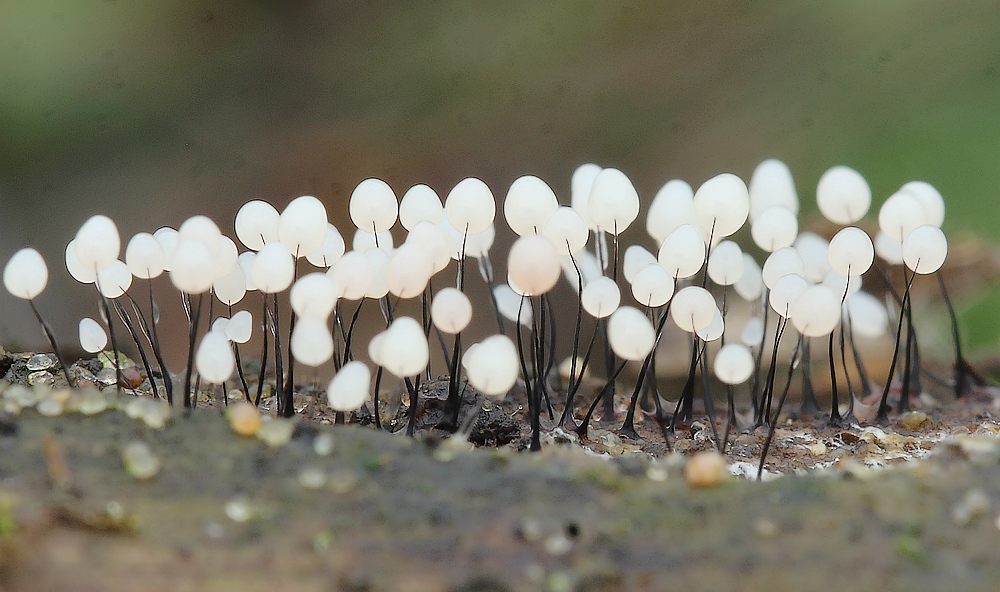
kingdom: Protozoa
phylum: Mycetozoa
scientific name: Mycetozoa
